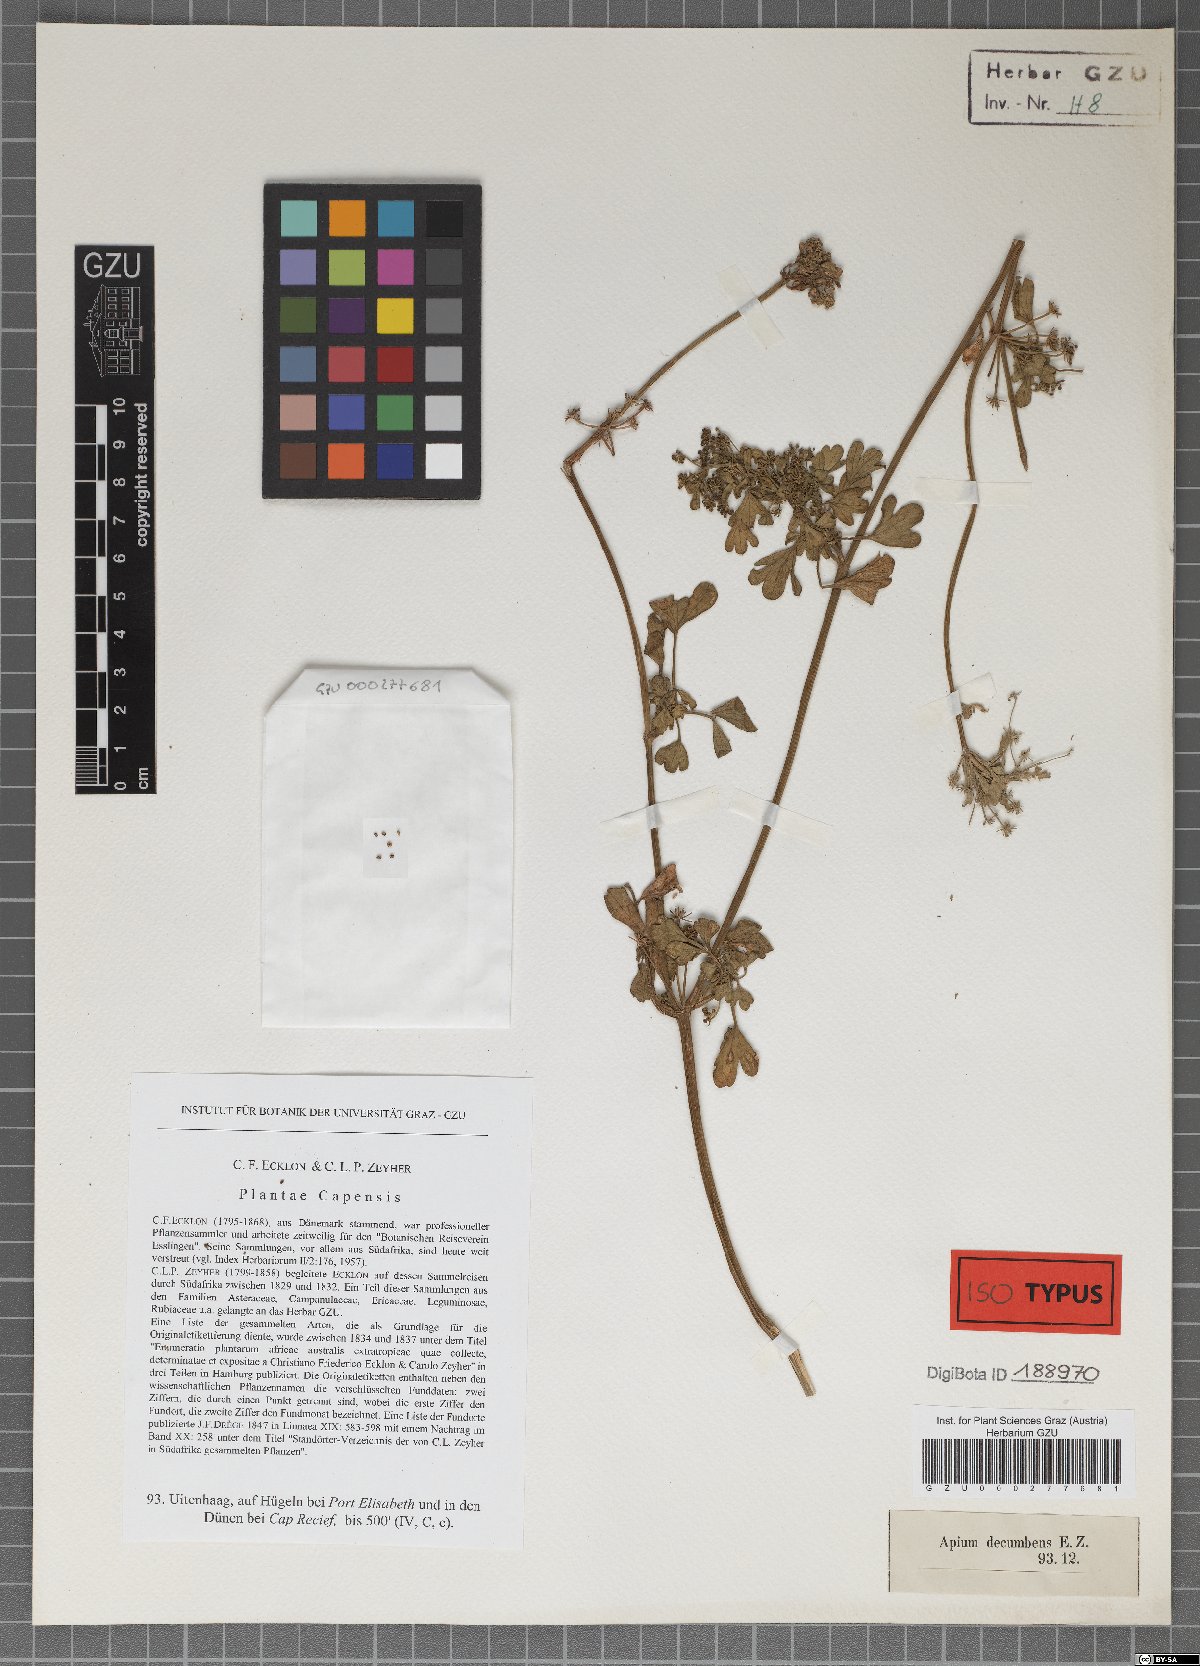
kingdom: Plantae
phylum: Tracheophyta
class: Magnoliopsida
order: Apiales
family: Apiaceae
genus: Apium
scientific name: Apium graveolens
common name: Wild celery
